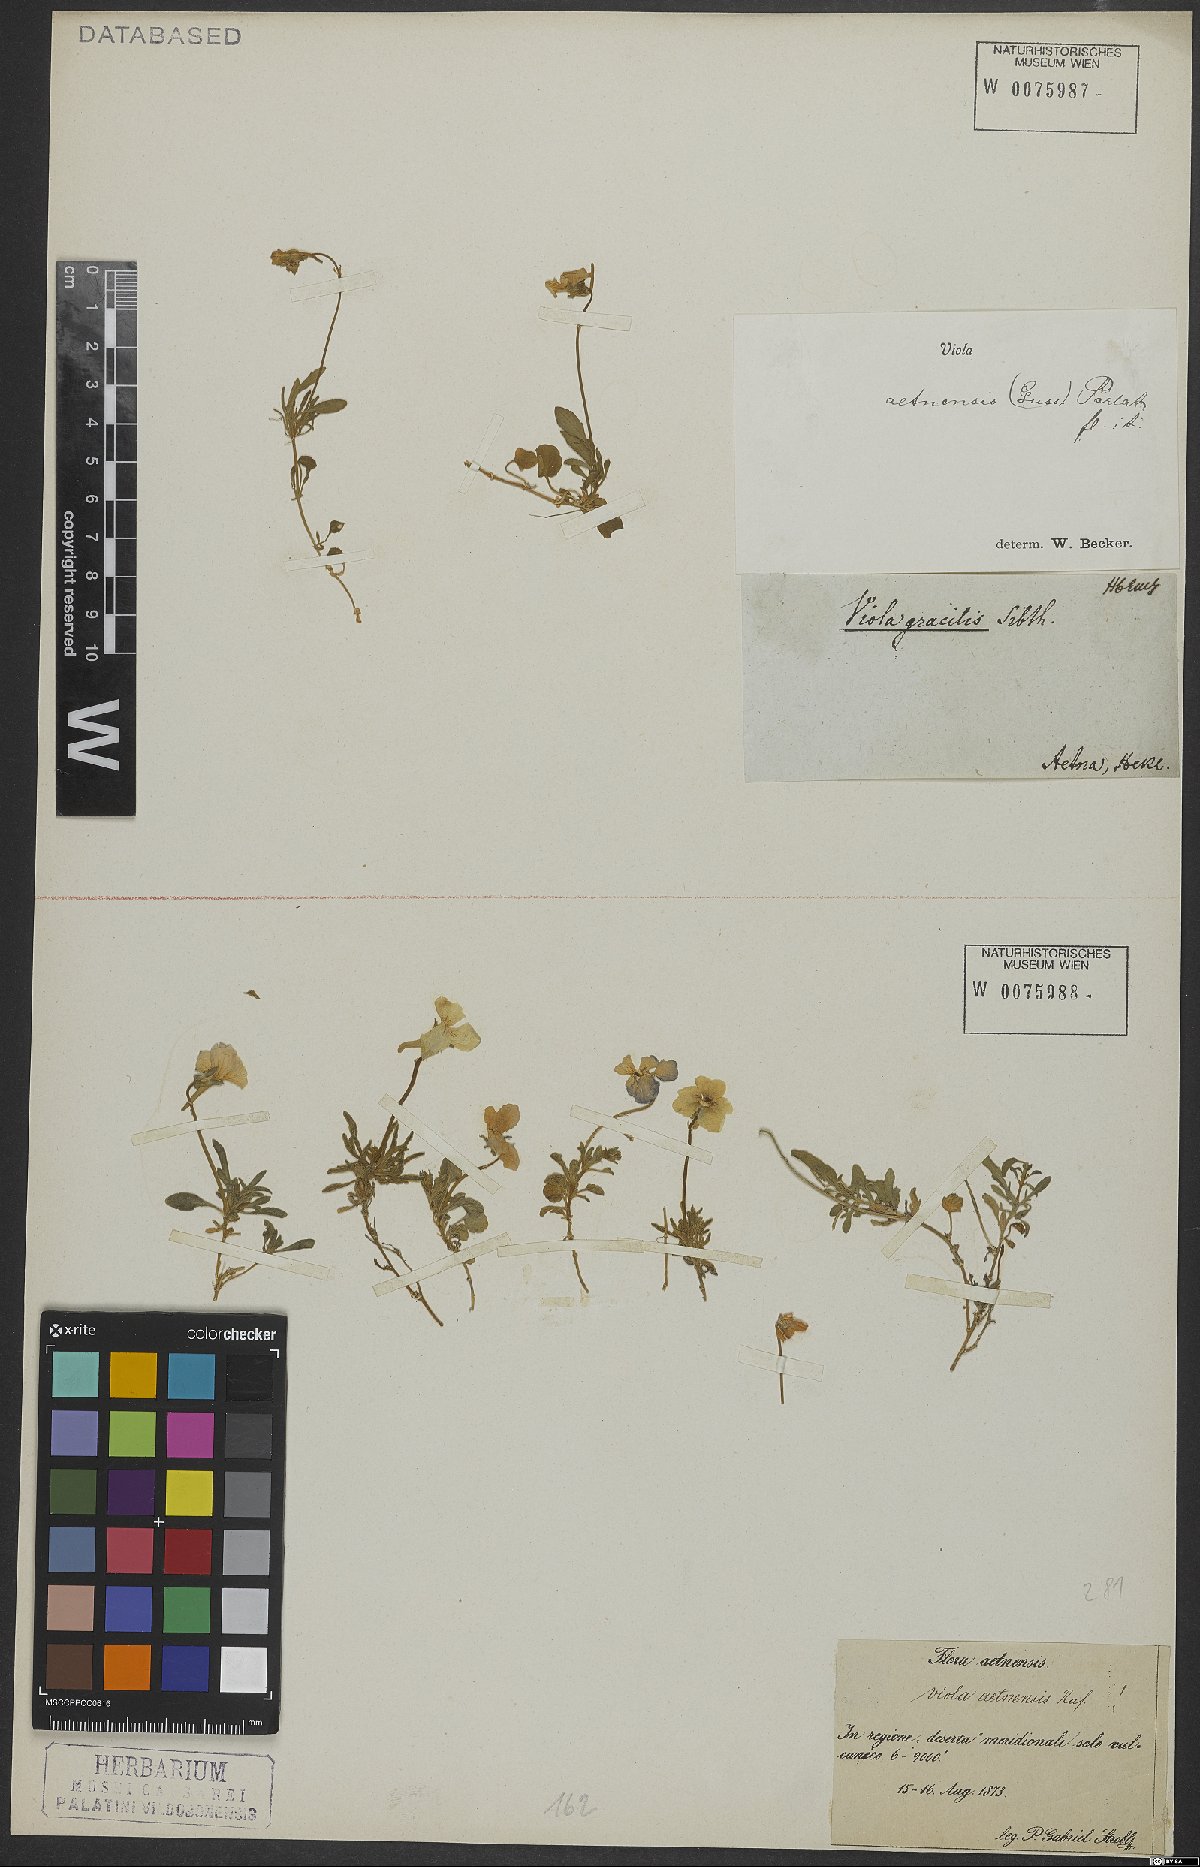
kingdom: Plantae
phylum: Tracheophyta
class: Magnoliopsida
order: Malpighiales
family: Violaceae
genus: Viola
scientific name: Viola aethnensis
